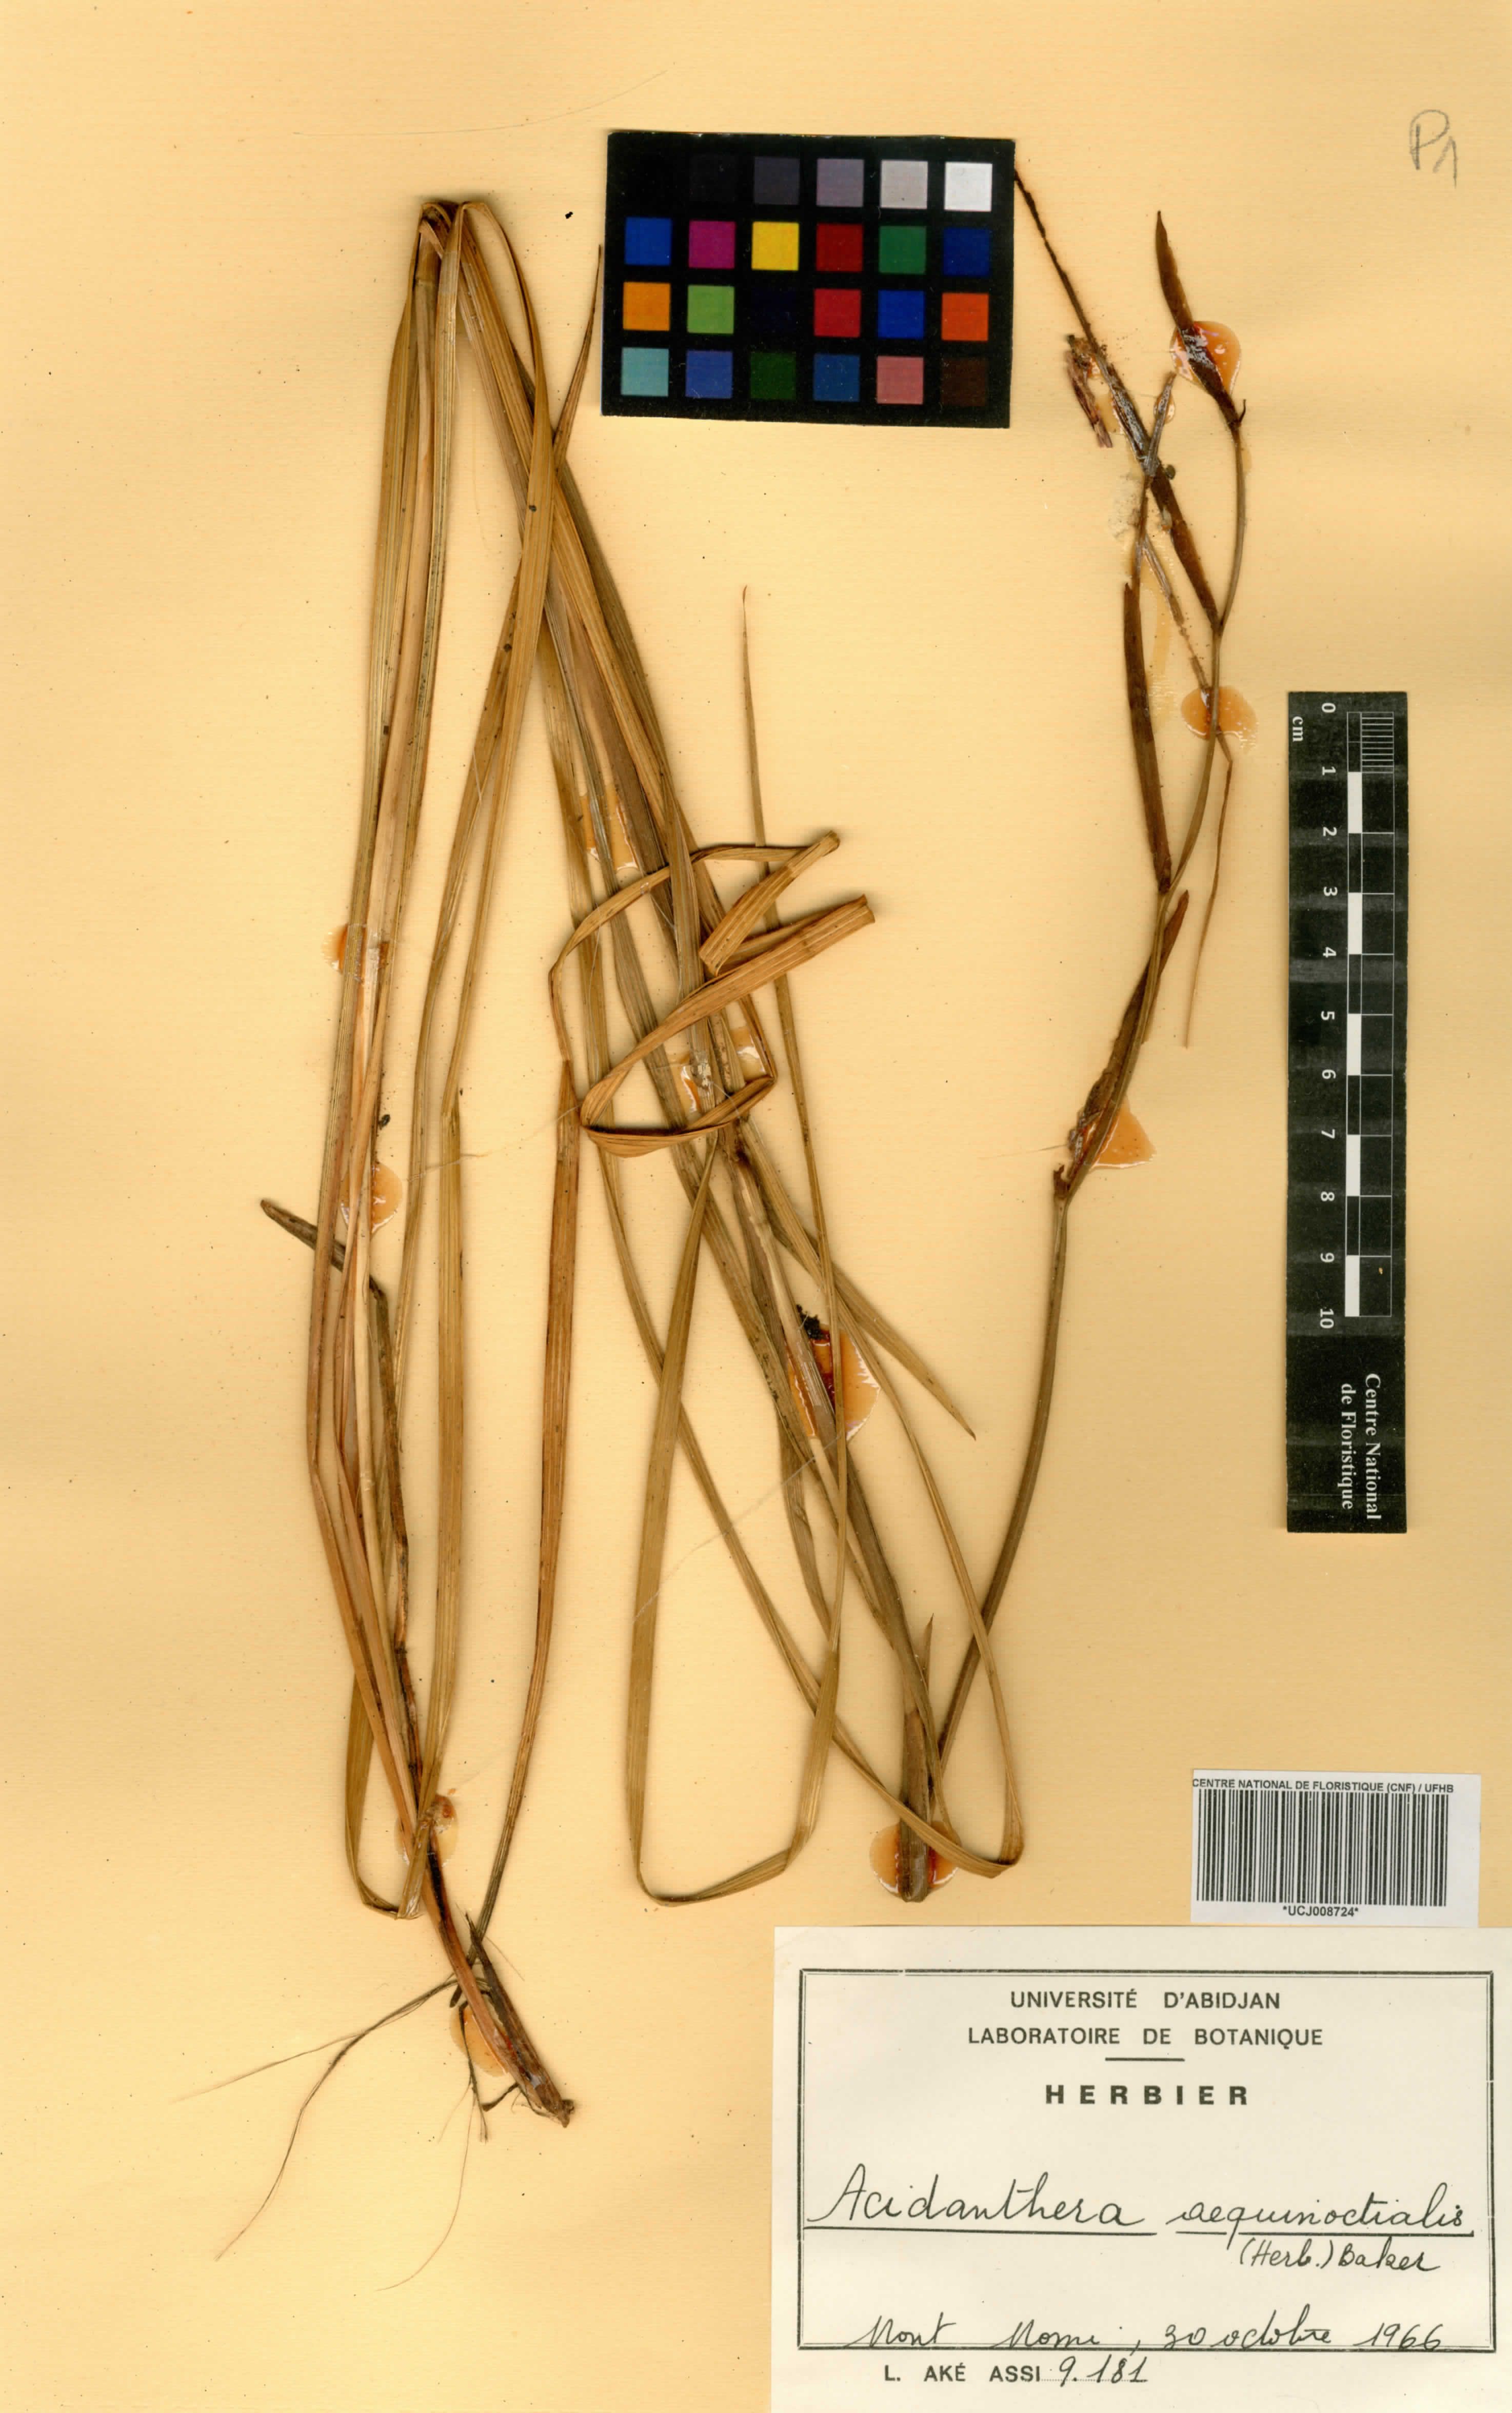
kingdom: Plantae
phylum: Tracheophyta
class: Liliopsida
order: Asparagales
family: Iridaceae
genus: Gladiolus
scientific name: Gladiolus aequinoctialis
